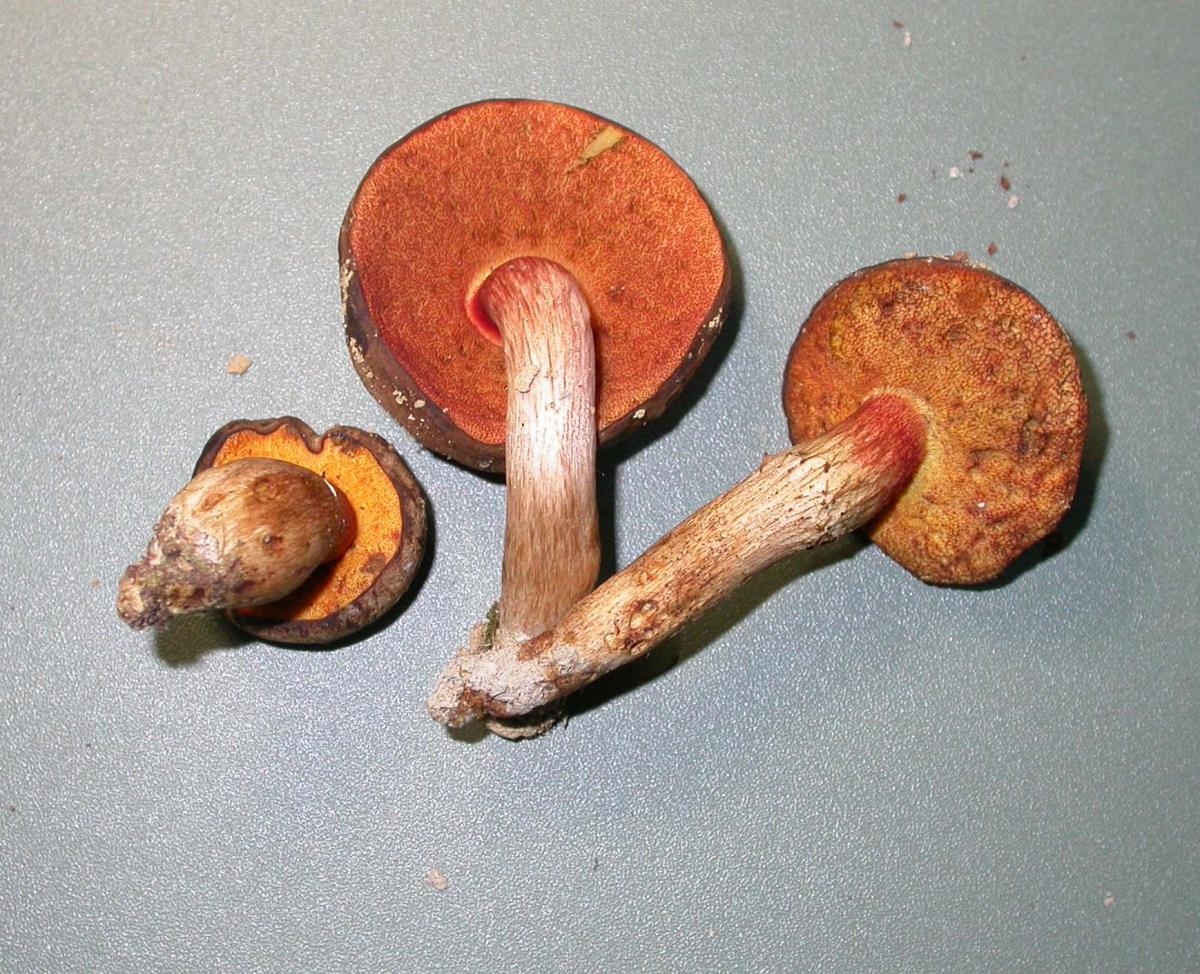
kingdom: Fungi
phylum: Basidiomycota
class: Agaricomycetes
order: Boletales
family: Boletaceae
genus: Xerocomus
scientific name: Xerocomus nothofagi
